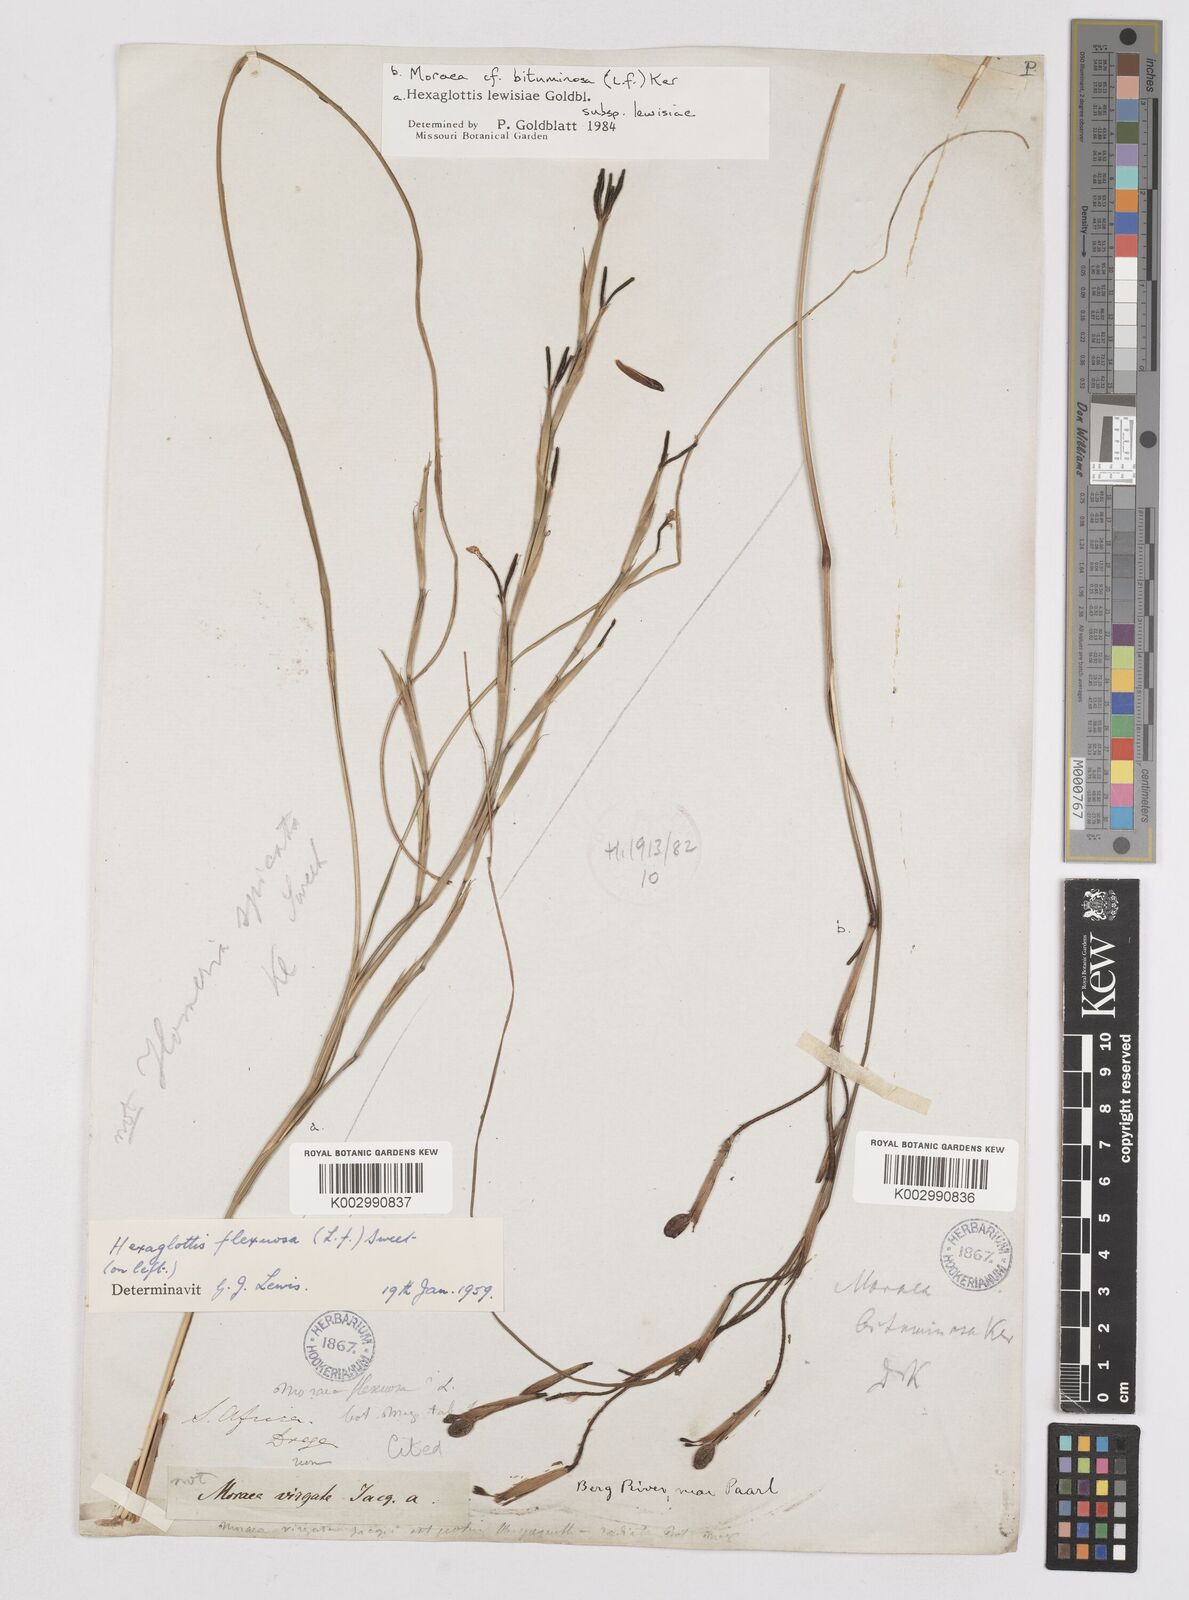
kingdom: Plantae
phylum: Tracheophyta
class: Liliopsida
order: Asparagales
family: Iridaceae
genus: Moraea
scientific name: Moraea lewisiae
